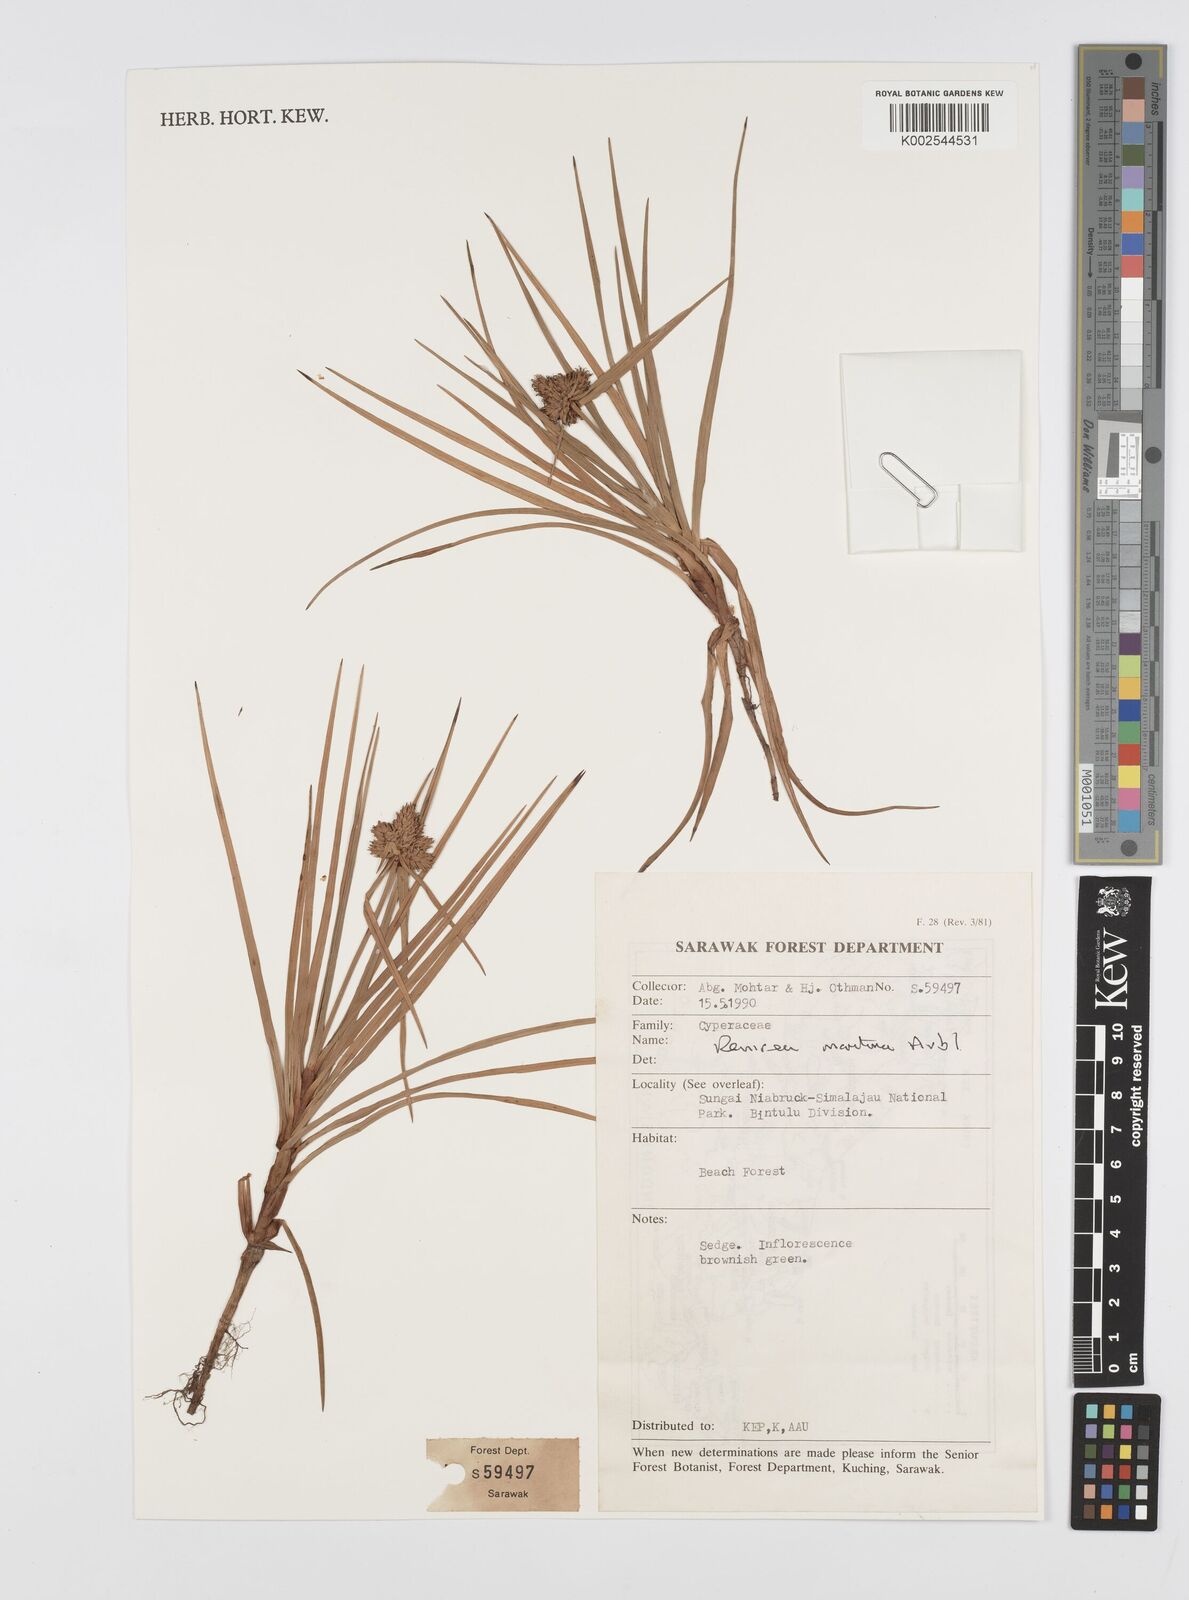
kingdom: Plantae
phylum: Tracheophyta
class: Liliopsida
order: Poales
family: Cyperaceae
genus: Cyperus
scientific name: Cyperus
